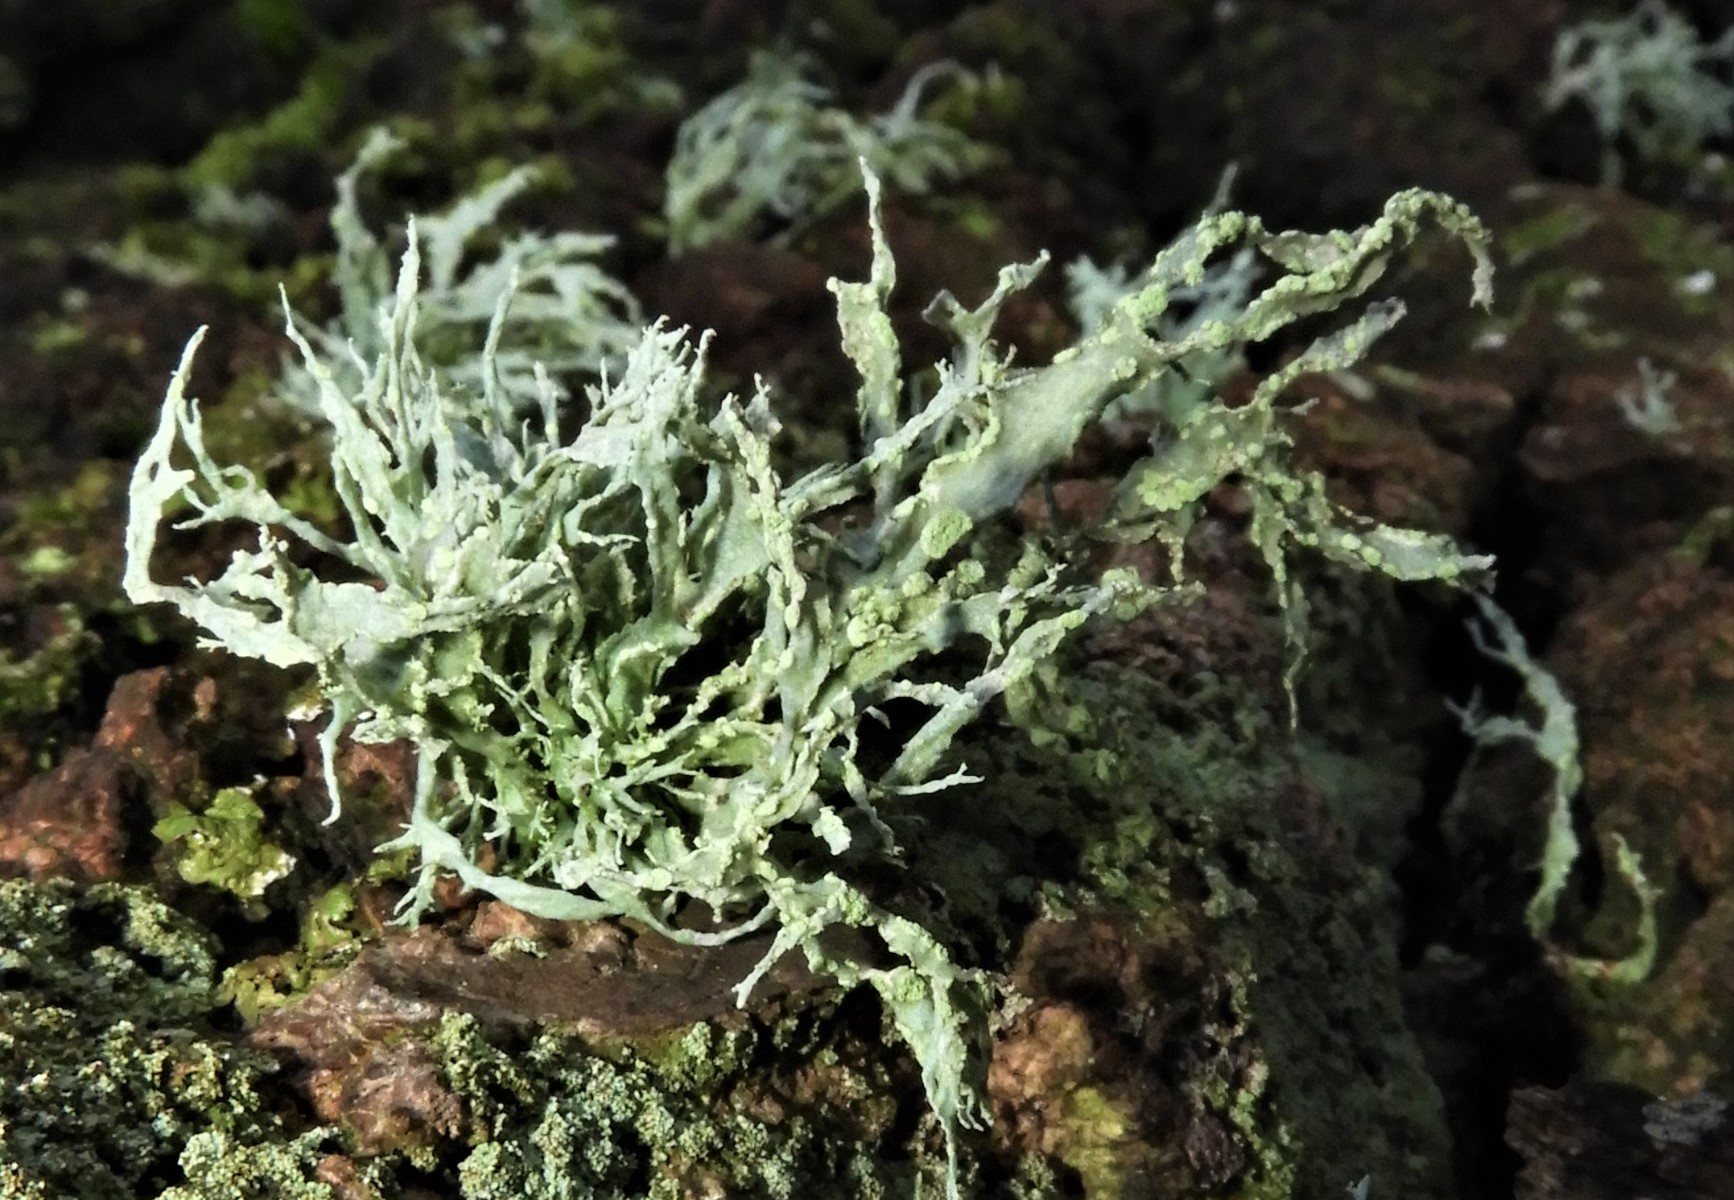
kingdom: Fungi
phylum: Ascomycota
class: Lecanoromycetes
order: Lecanorales
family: Ramalinaceae
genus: Ramalina
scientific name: Ramalina farinacea
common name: melet grenlav
